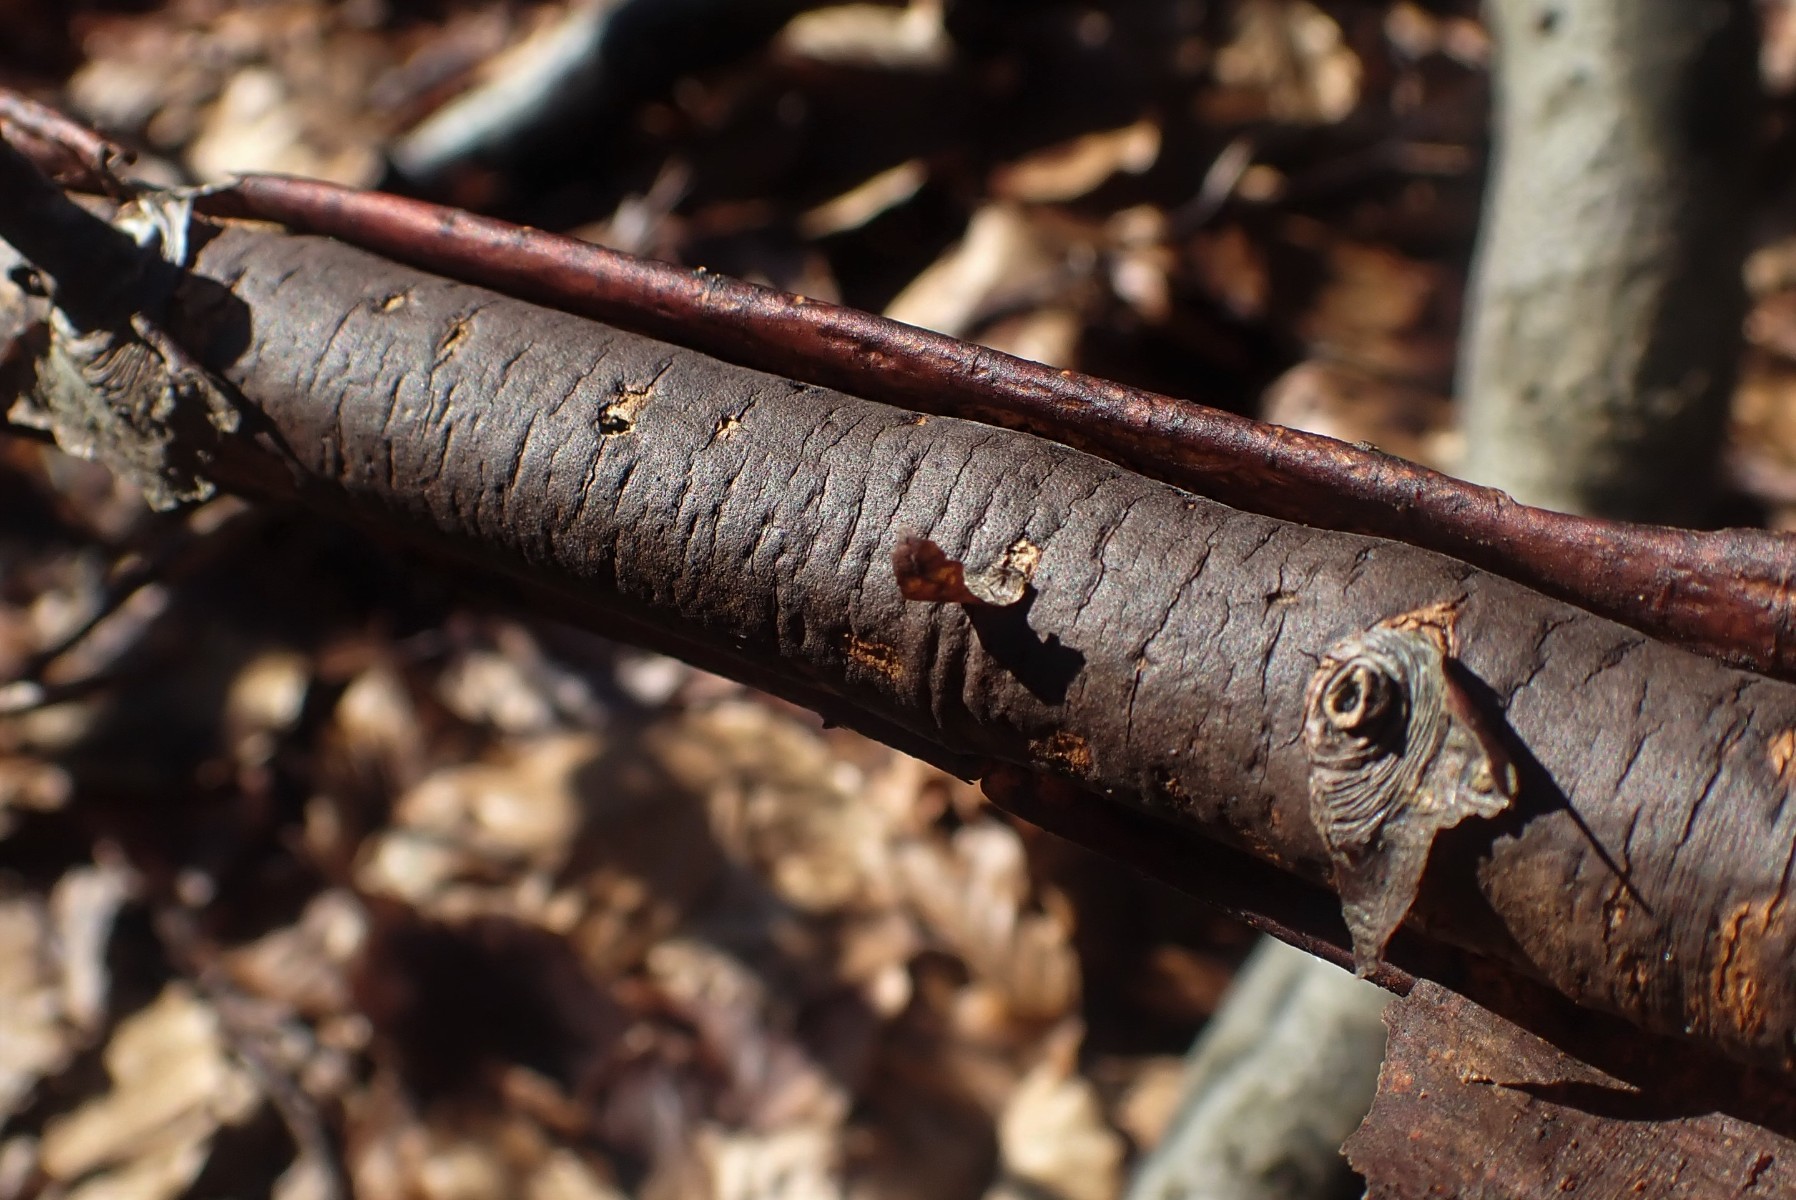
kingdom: Fungi
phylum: Ascomycota
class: Sordariomycetes
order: Xylariales
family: Diatrypaceae
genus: Diatrype
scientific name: Diatrype decorticata
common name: barksprænger-kulskorpe
